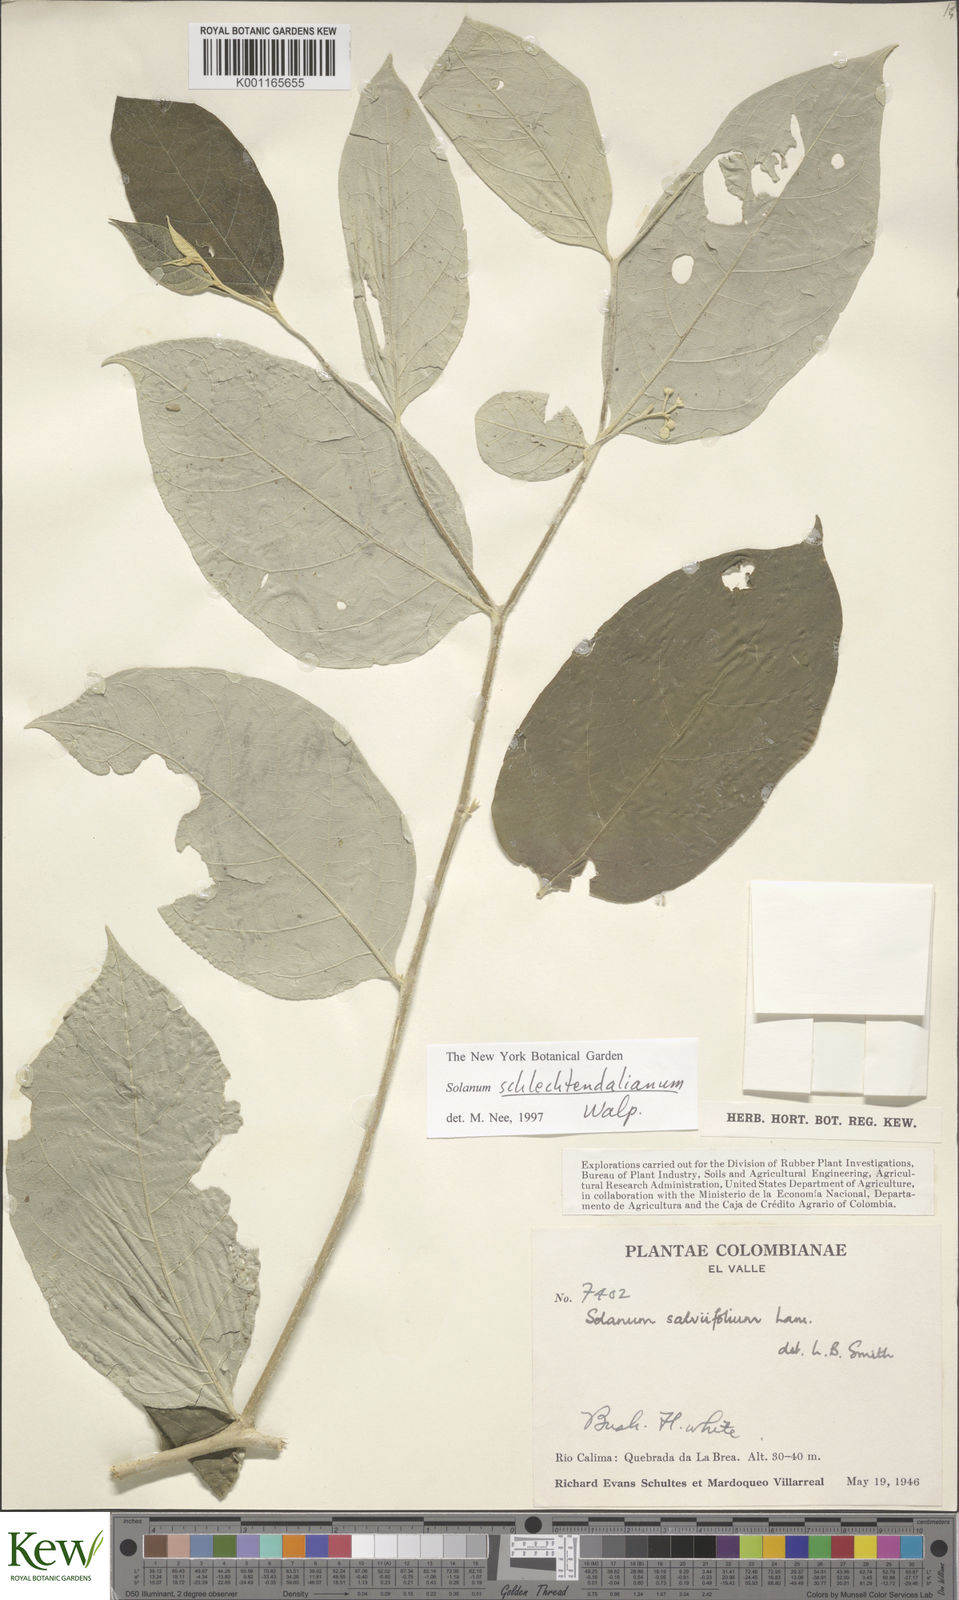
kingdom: Plantae
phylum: Tracheophyta
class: Magnoliopsida
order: Solanales
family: Solanaceae
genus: Solanum
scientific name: Solanum schlechtendalianum
